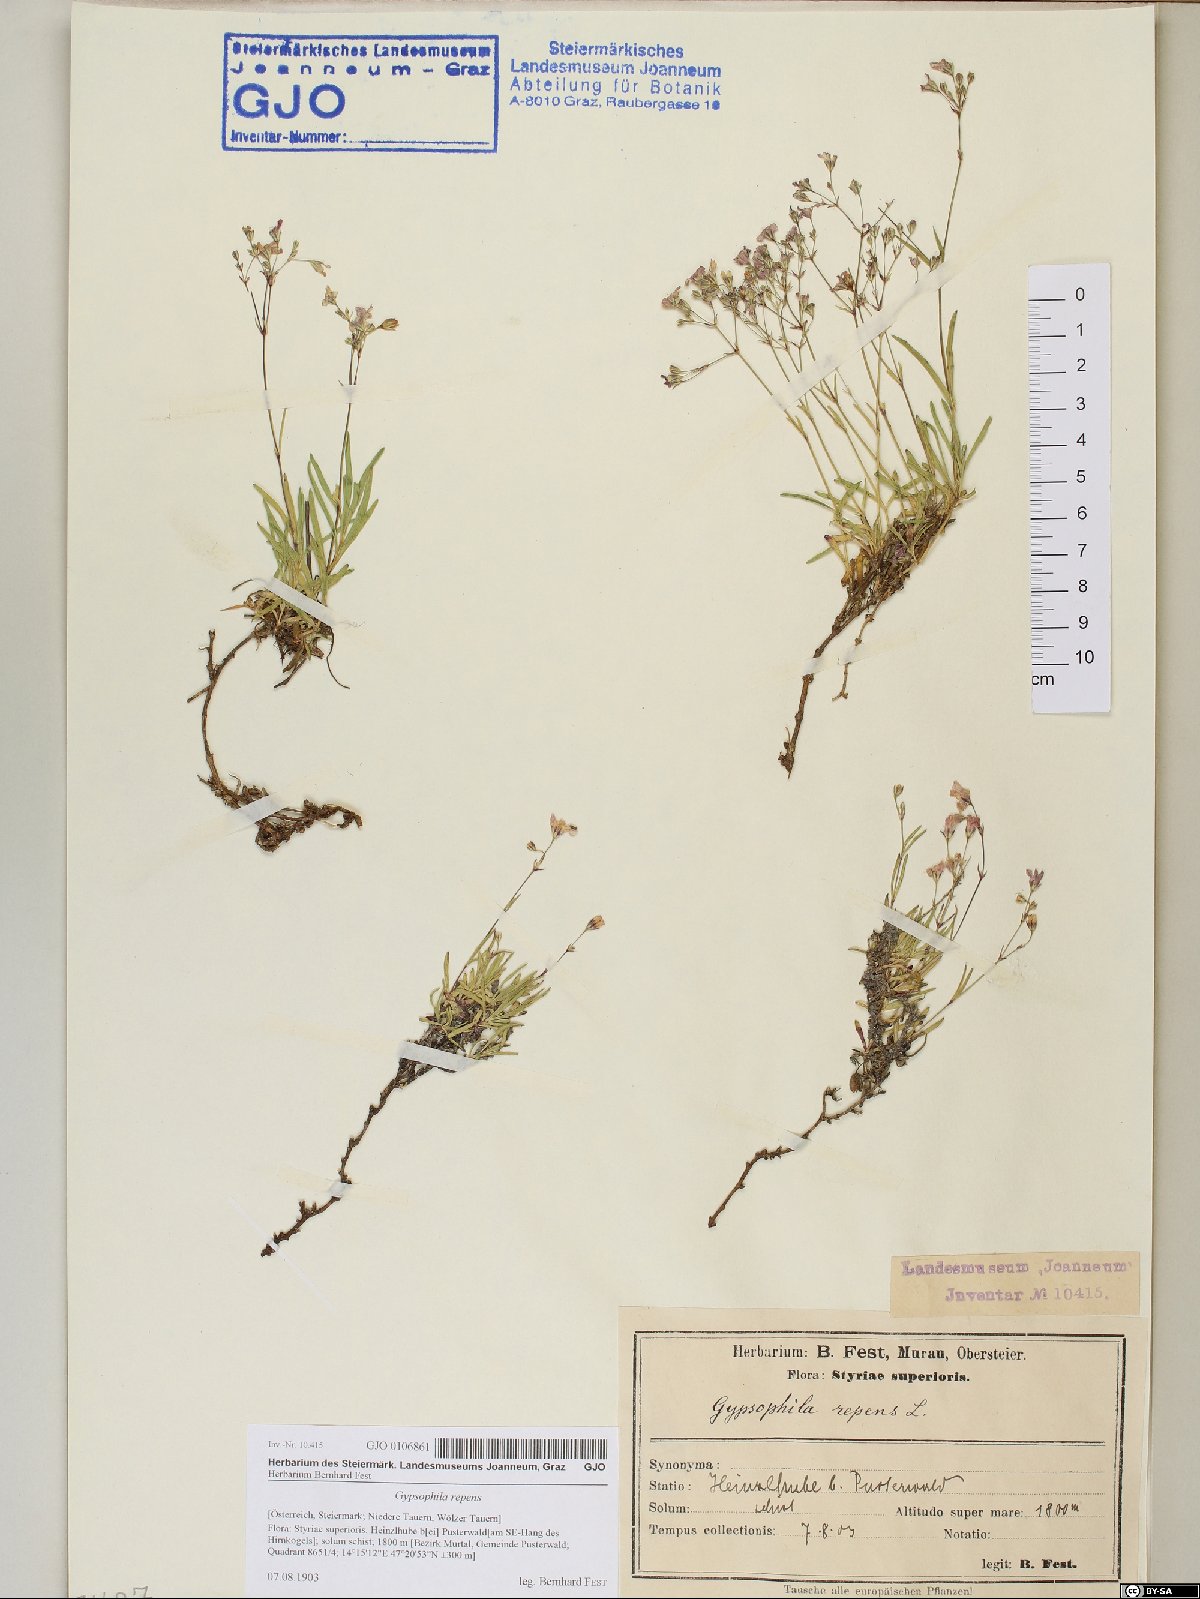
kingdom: Plantae
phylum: Tracheophyta
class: Magnoliopsida
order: Caryophyllales
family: Caryophyllaceae
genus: Gypsophila
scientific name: Gypsophila repens
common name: Creeping baby's-breath
